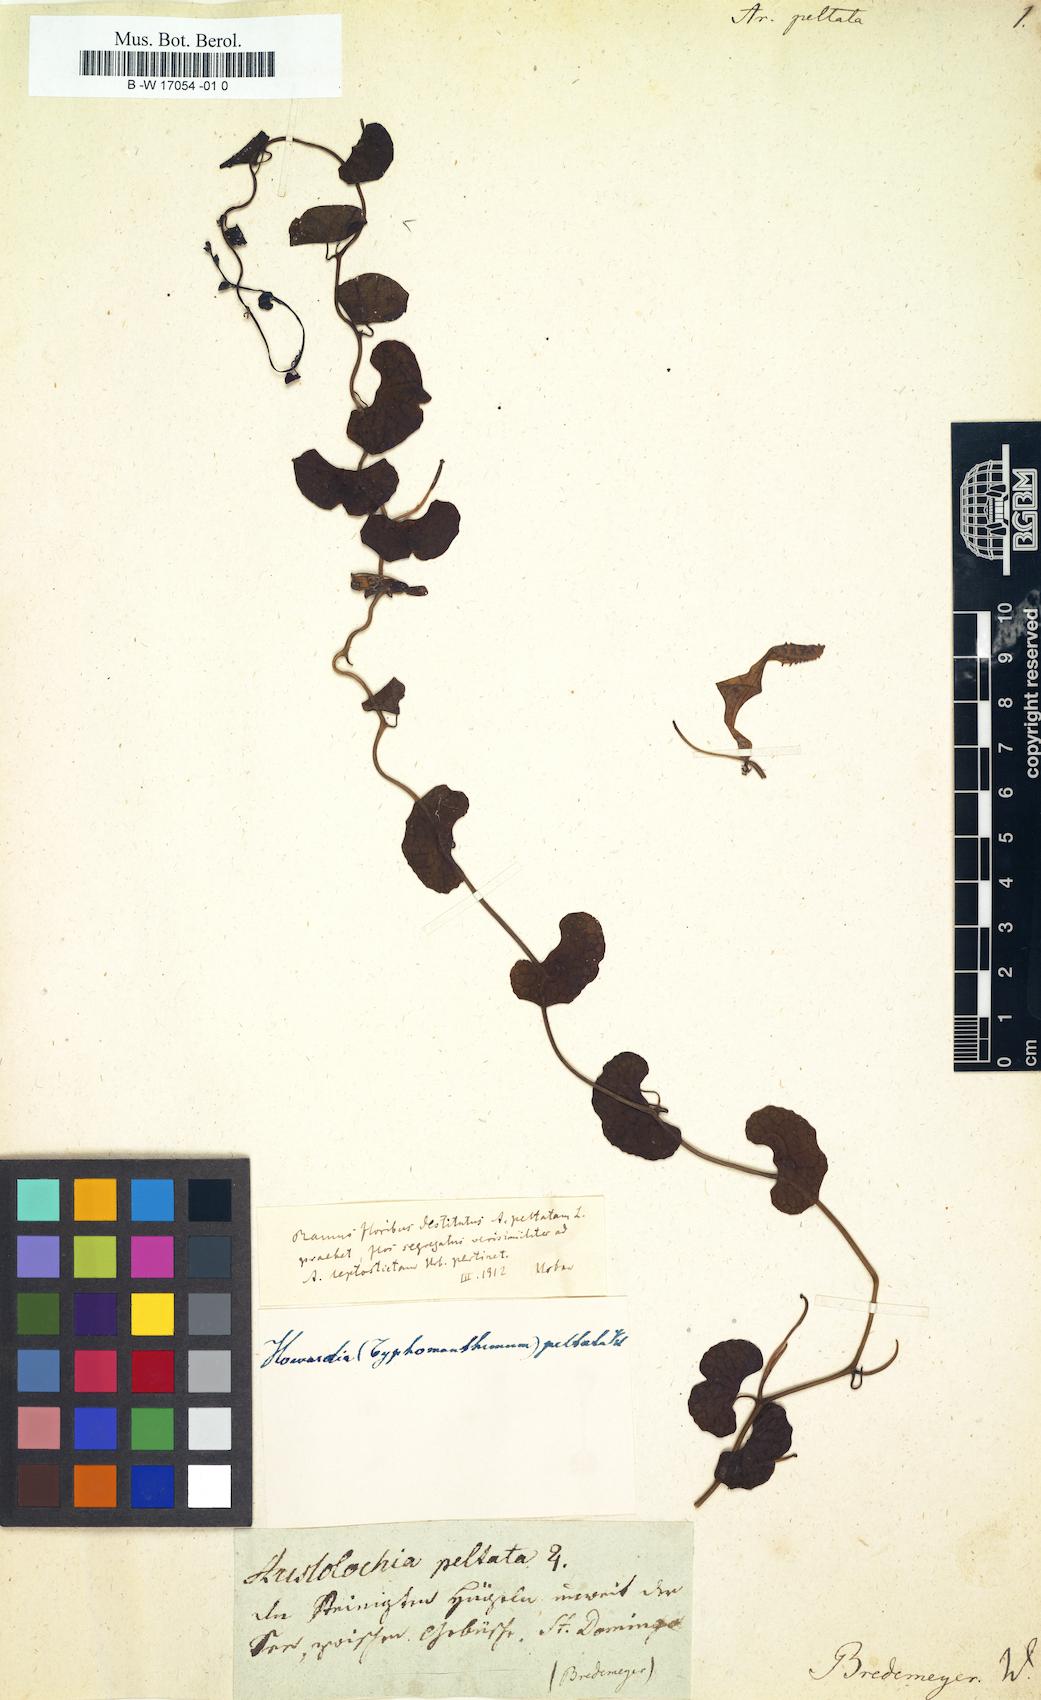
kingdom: Plantae
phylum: Tracheophyta
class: Magnoliopsida
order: Piperales
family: Aristolochiaceae
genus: Aristolochia
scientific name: Aristolochia peltata
